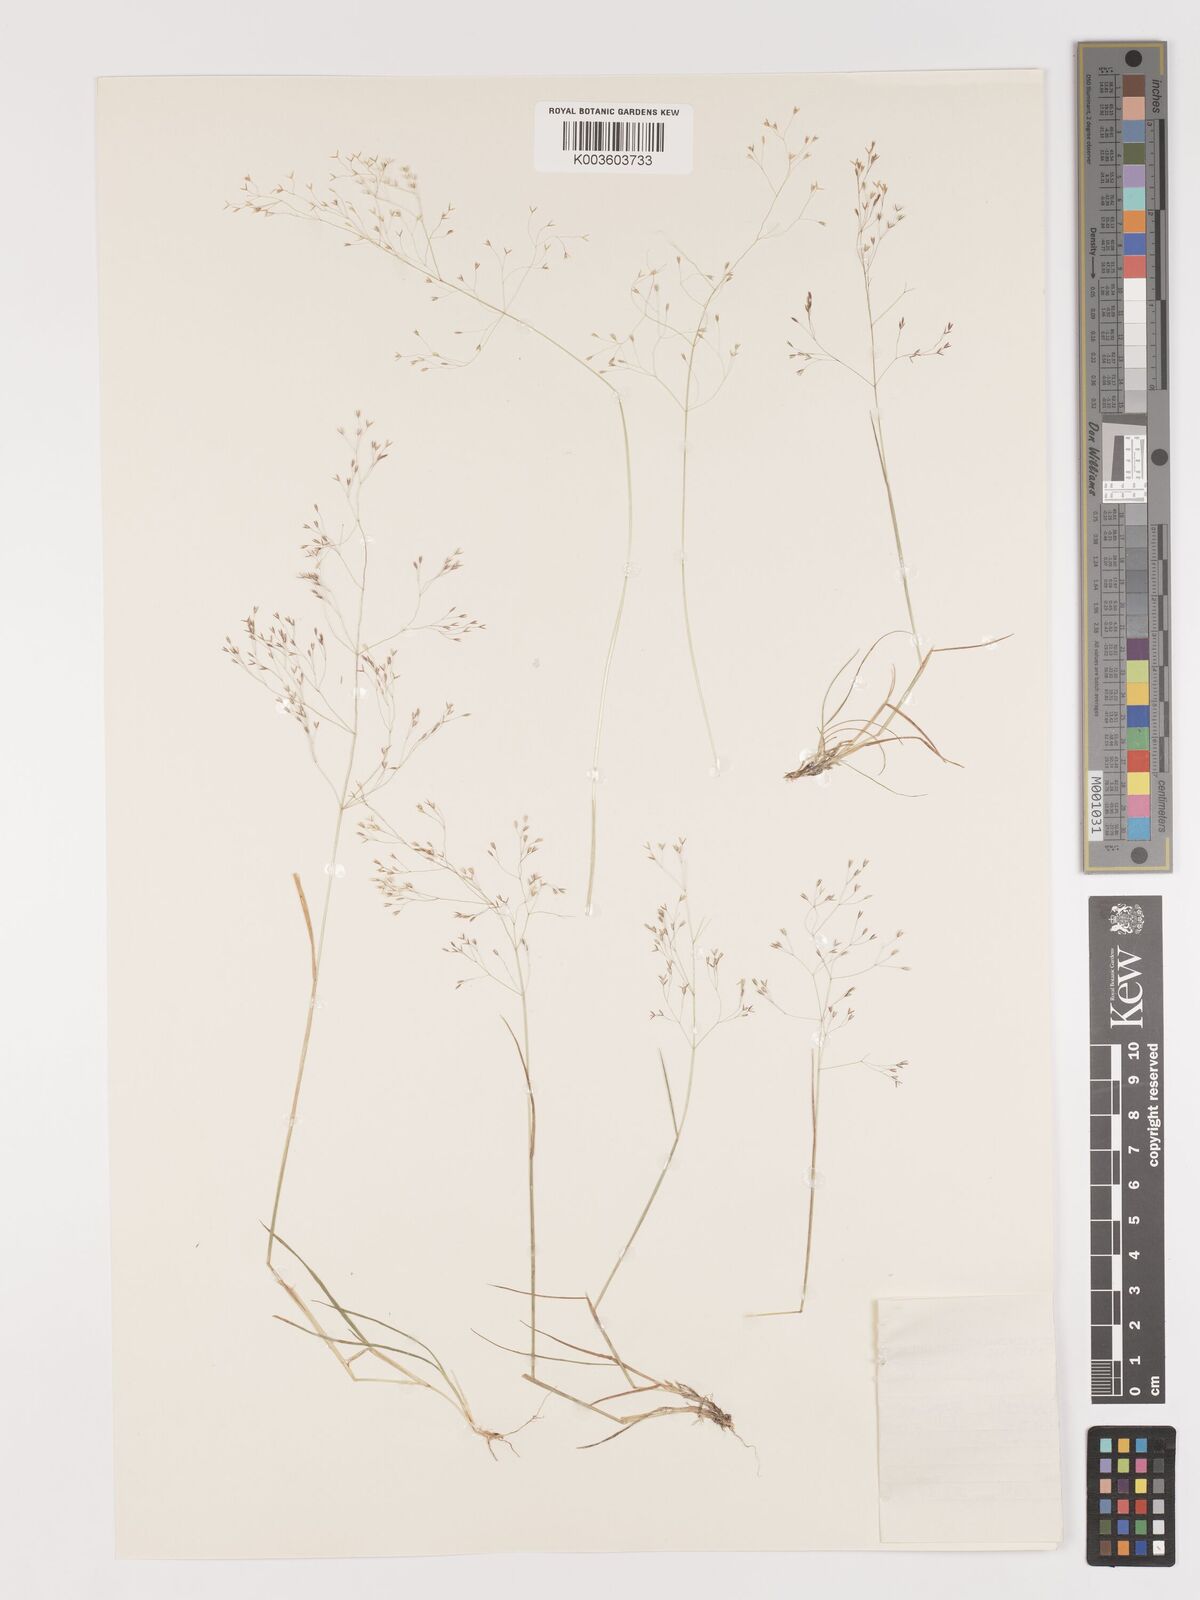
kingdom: Plantae
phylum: Tracheophyta
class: Liliopsida
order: Poales
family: Poaceae
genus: Agrostis
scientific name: Agrostis bergiana
